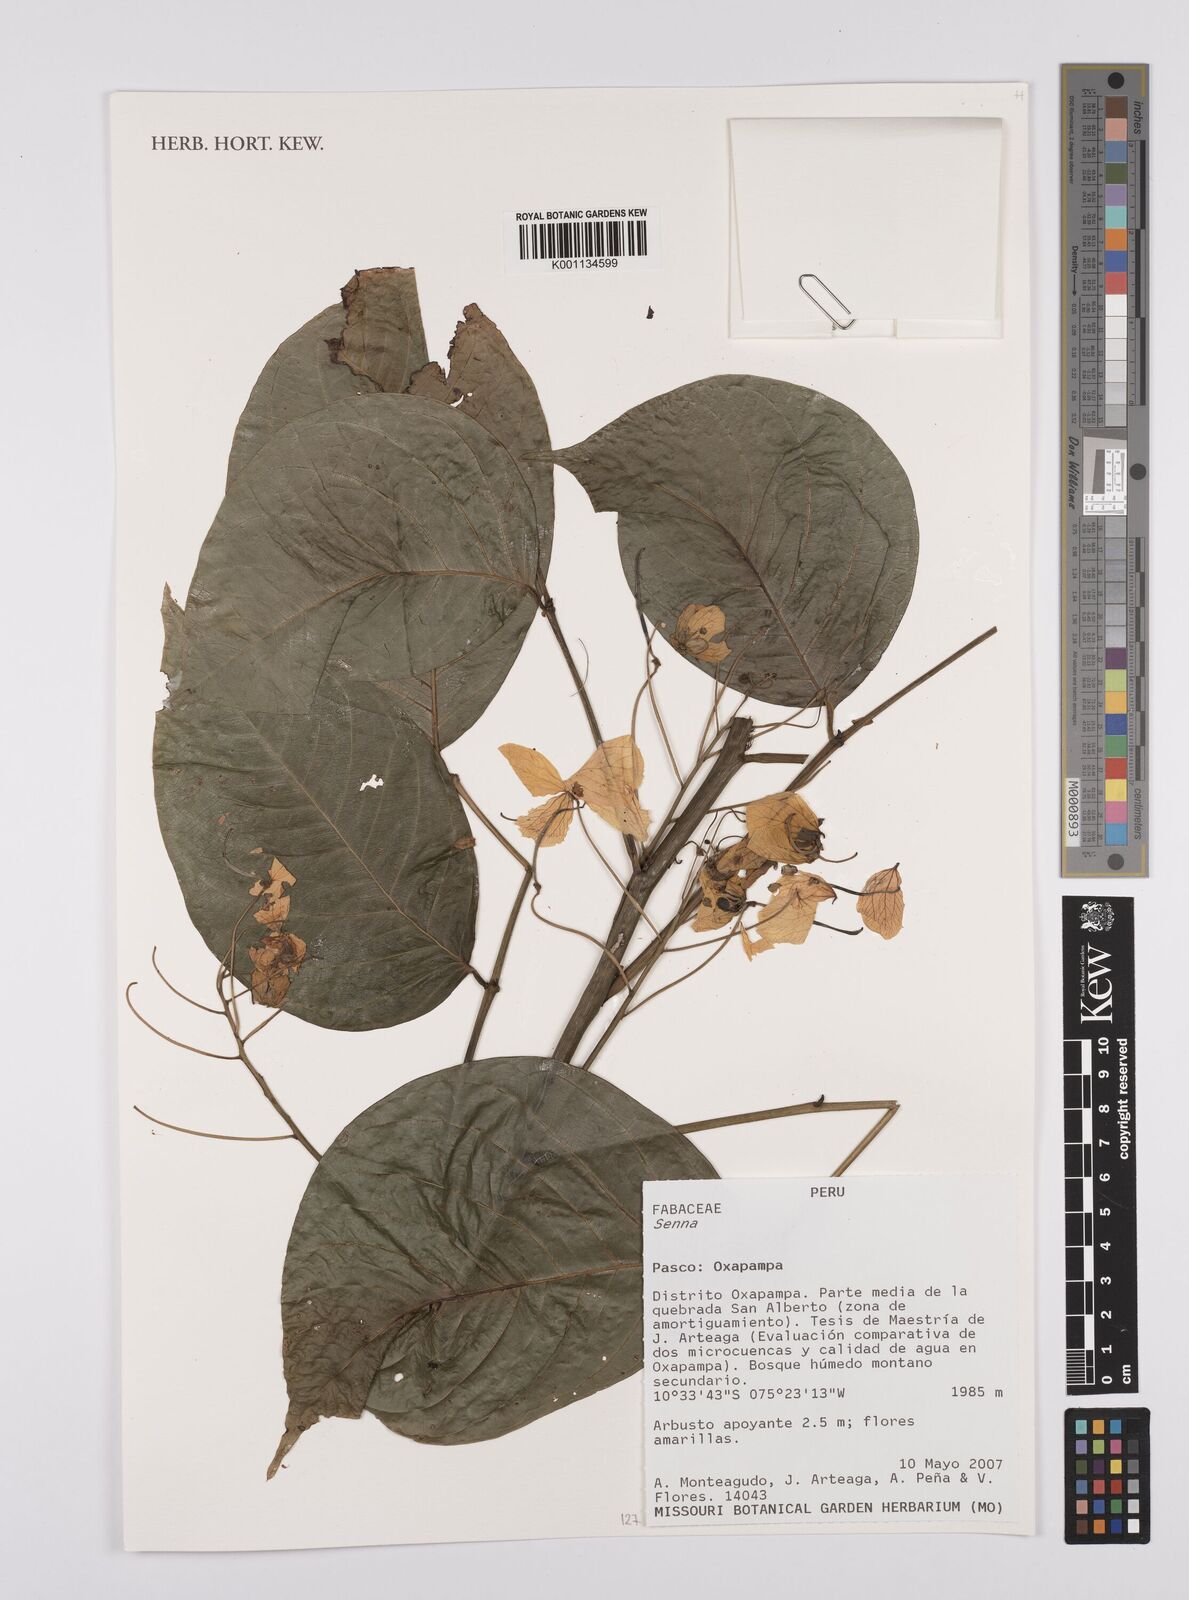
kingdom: Plantae
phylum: Tracheophyta
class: Magnoliopsida
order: Fabales
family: Fabaceae
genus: Senna
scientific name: Senna
